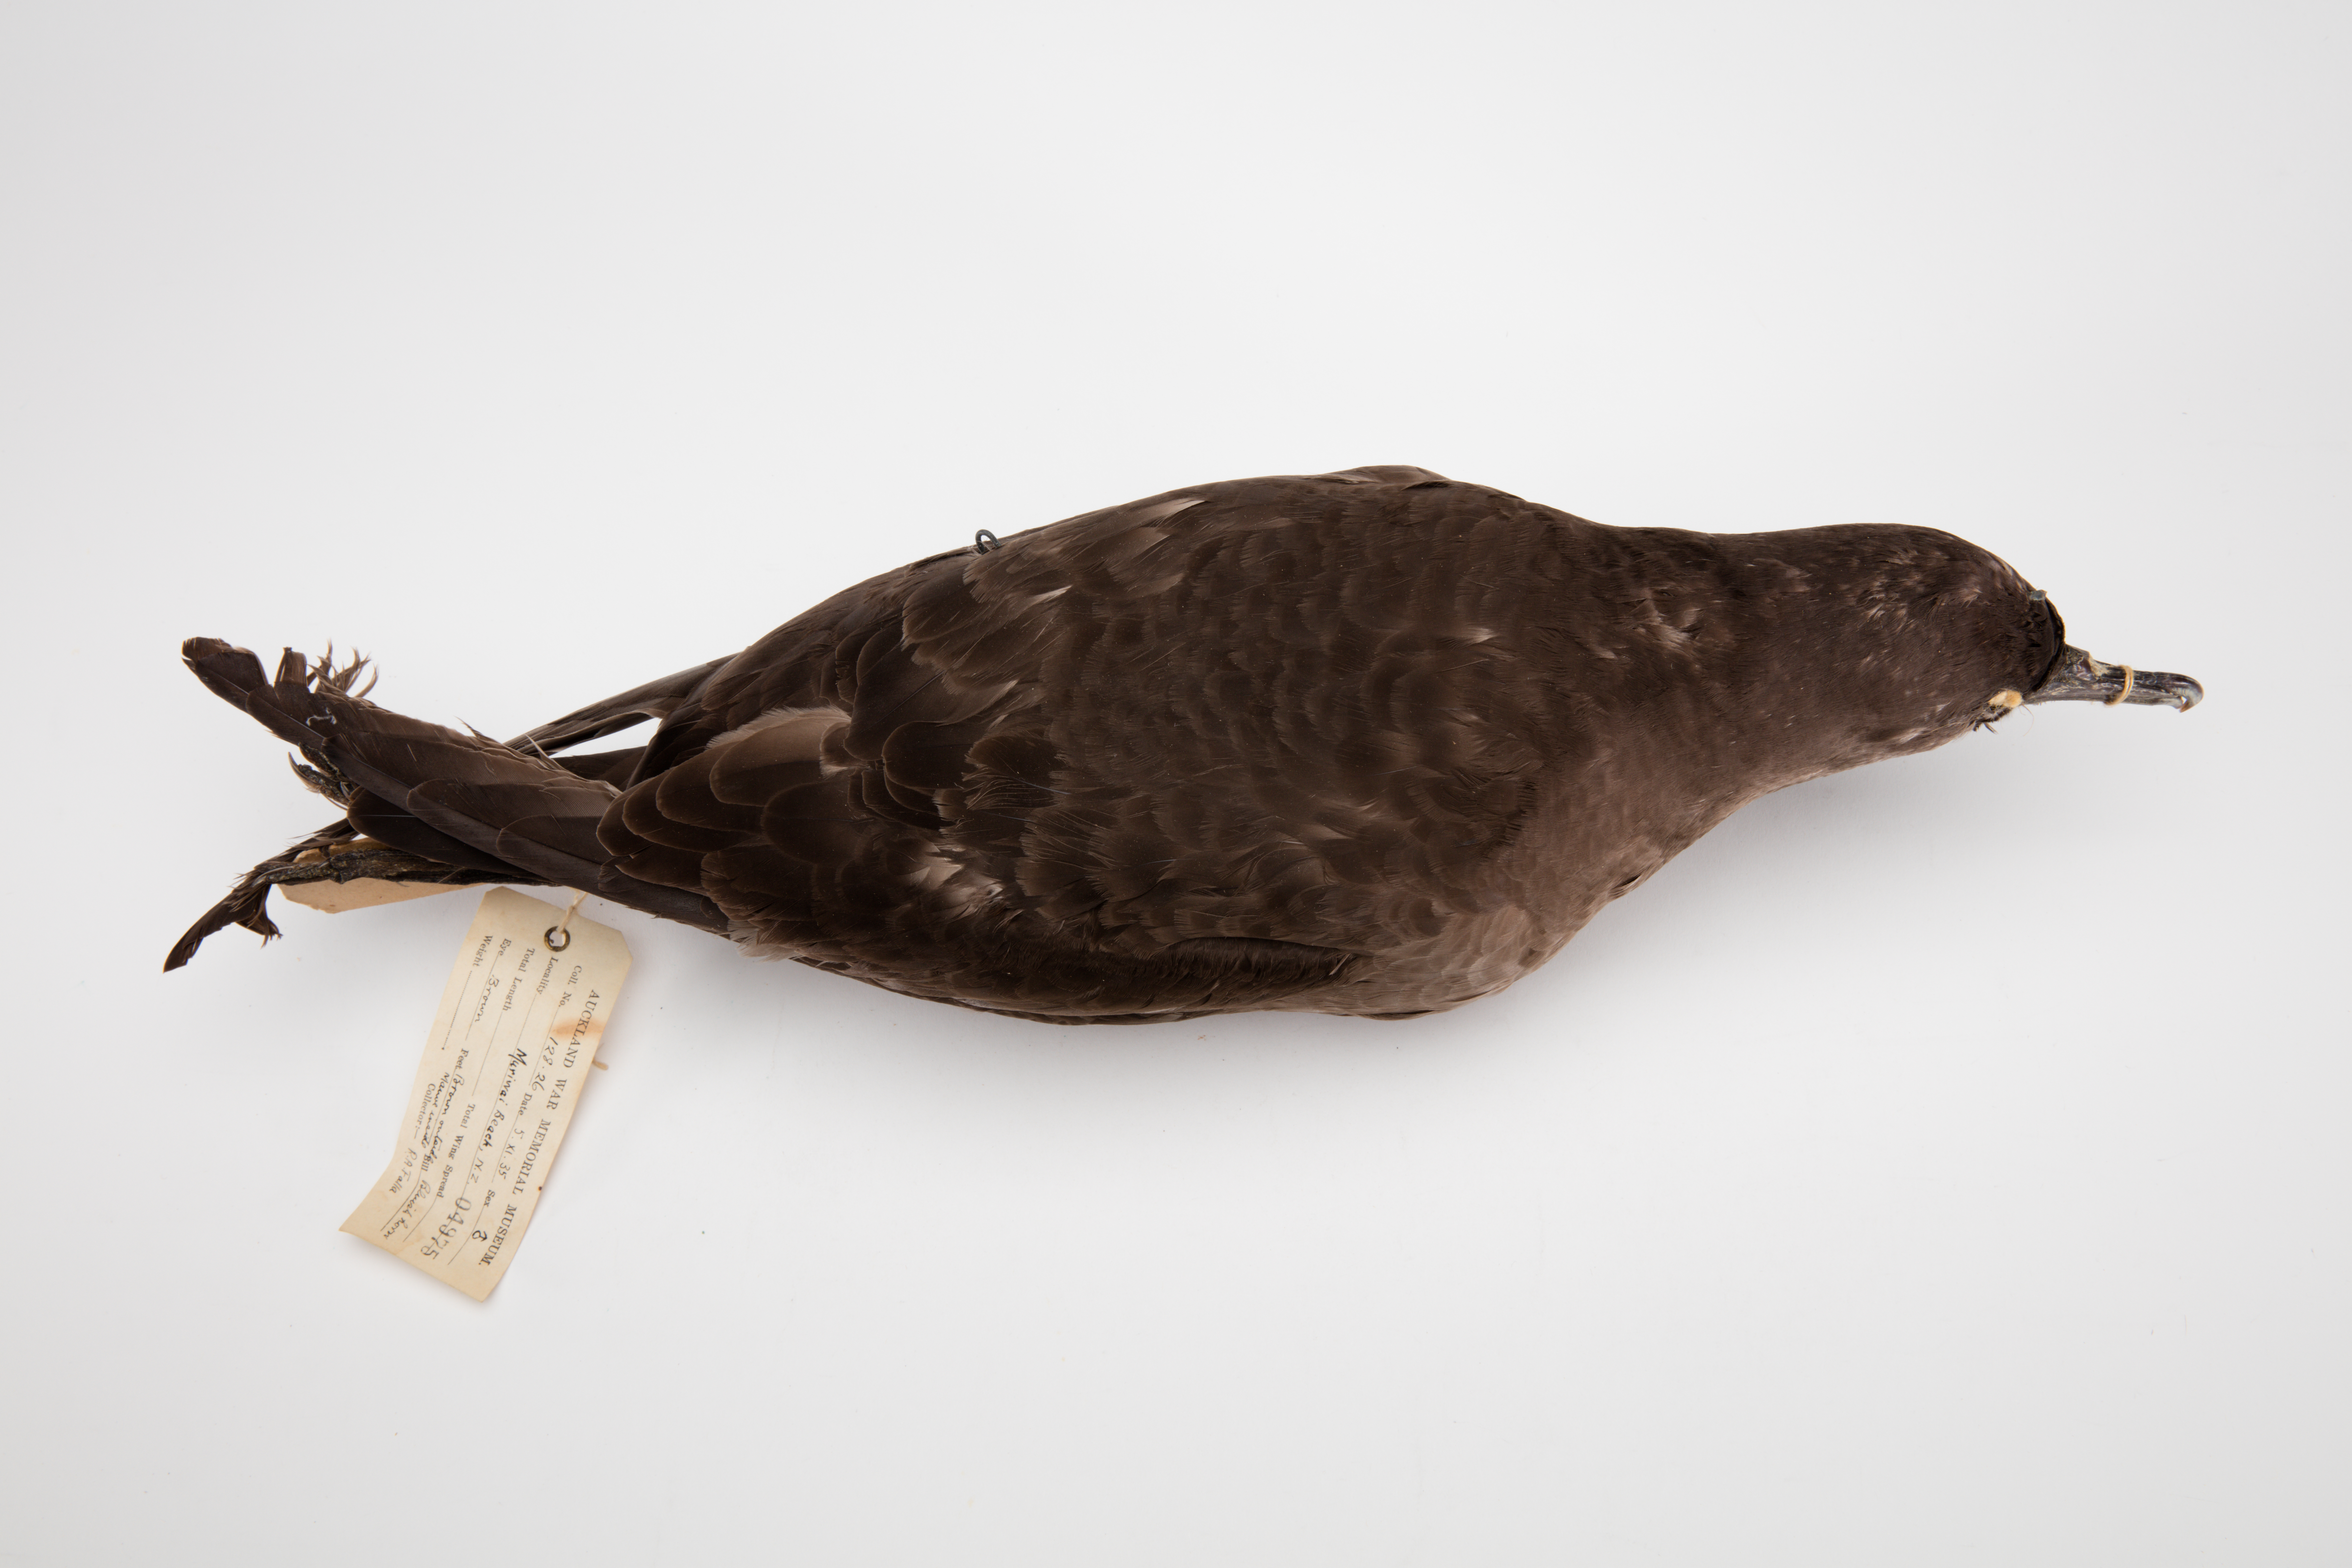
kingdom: Animalia
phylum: Chordata
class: Aves
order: Procellariiformes
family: Procellariidae
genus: Puffinus
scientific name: Puffinus griseus
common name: Sooty shearwater
